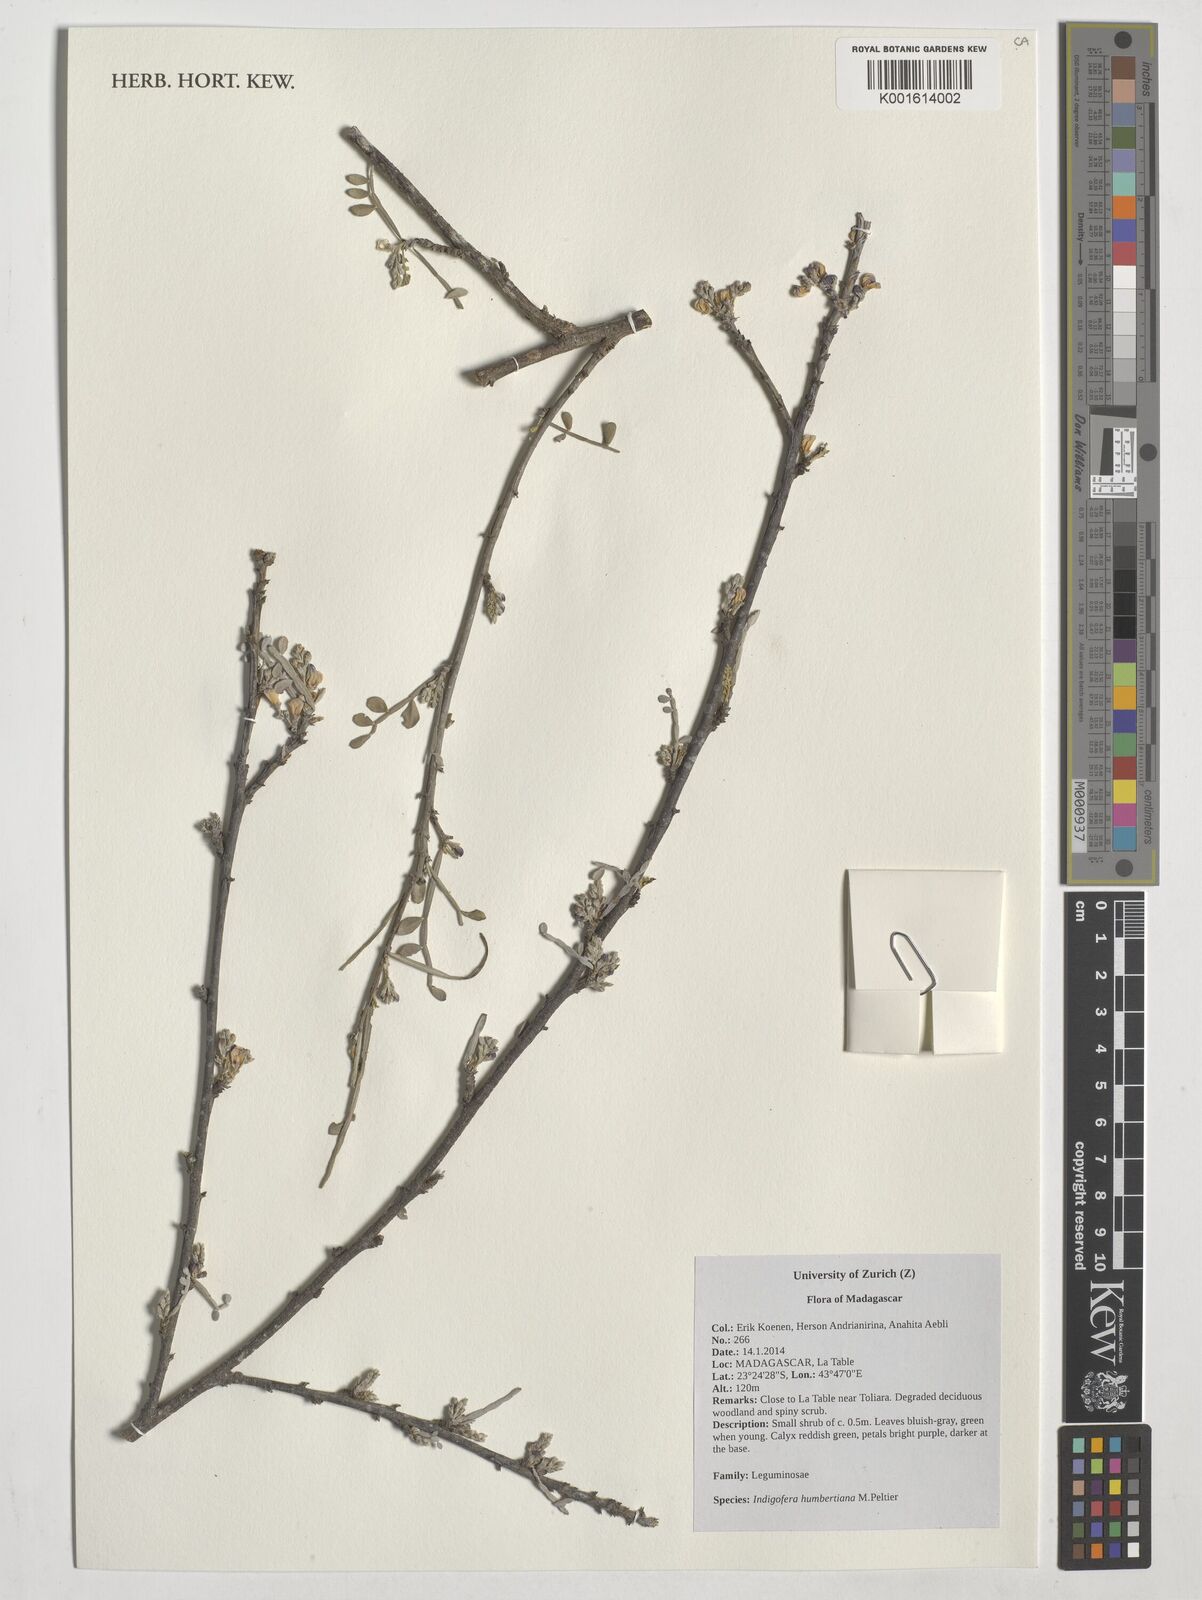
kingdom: Plantae
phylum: Tracheophyta
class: Magnoliopsida
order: Fabales
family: Fabaceae
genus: Indigofera
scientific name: Indigofera humbertiana
